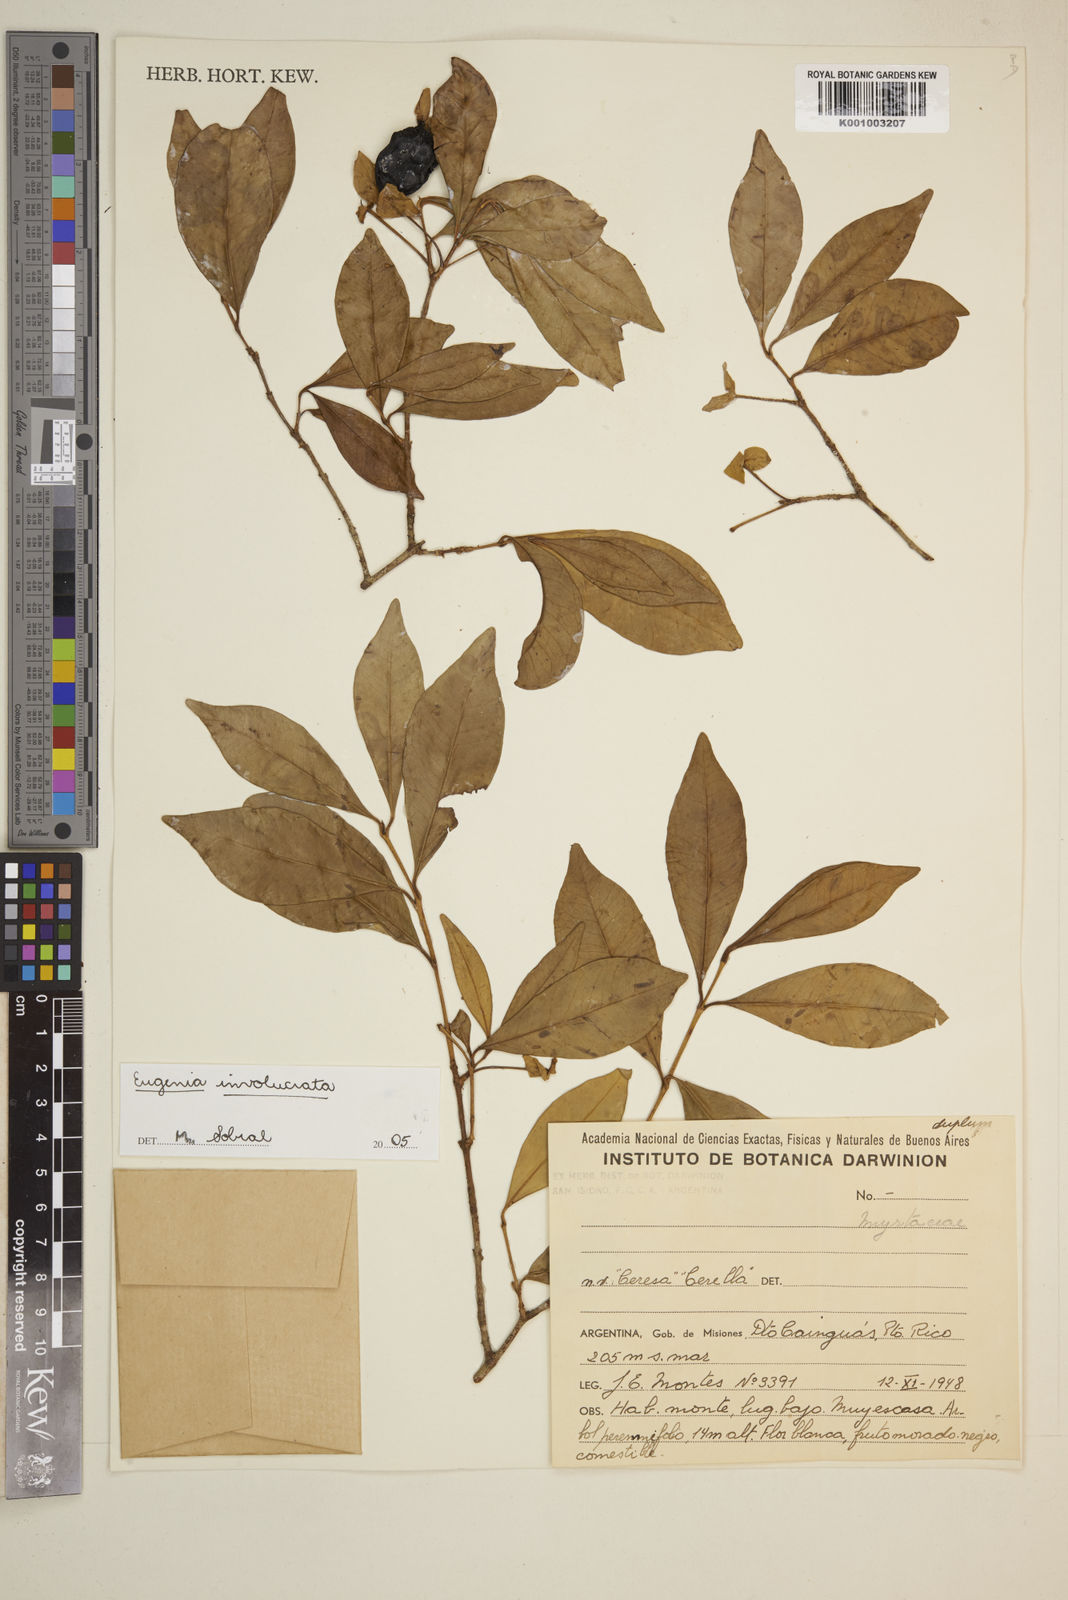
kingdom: Plantae
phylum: Tracheophyta
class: Magnoliopsida
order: Myrtales
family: Myrtaceae
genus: Eugenia
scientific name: Eugenia involucrata
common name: Cherry-of-the-rio grande
